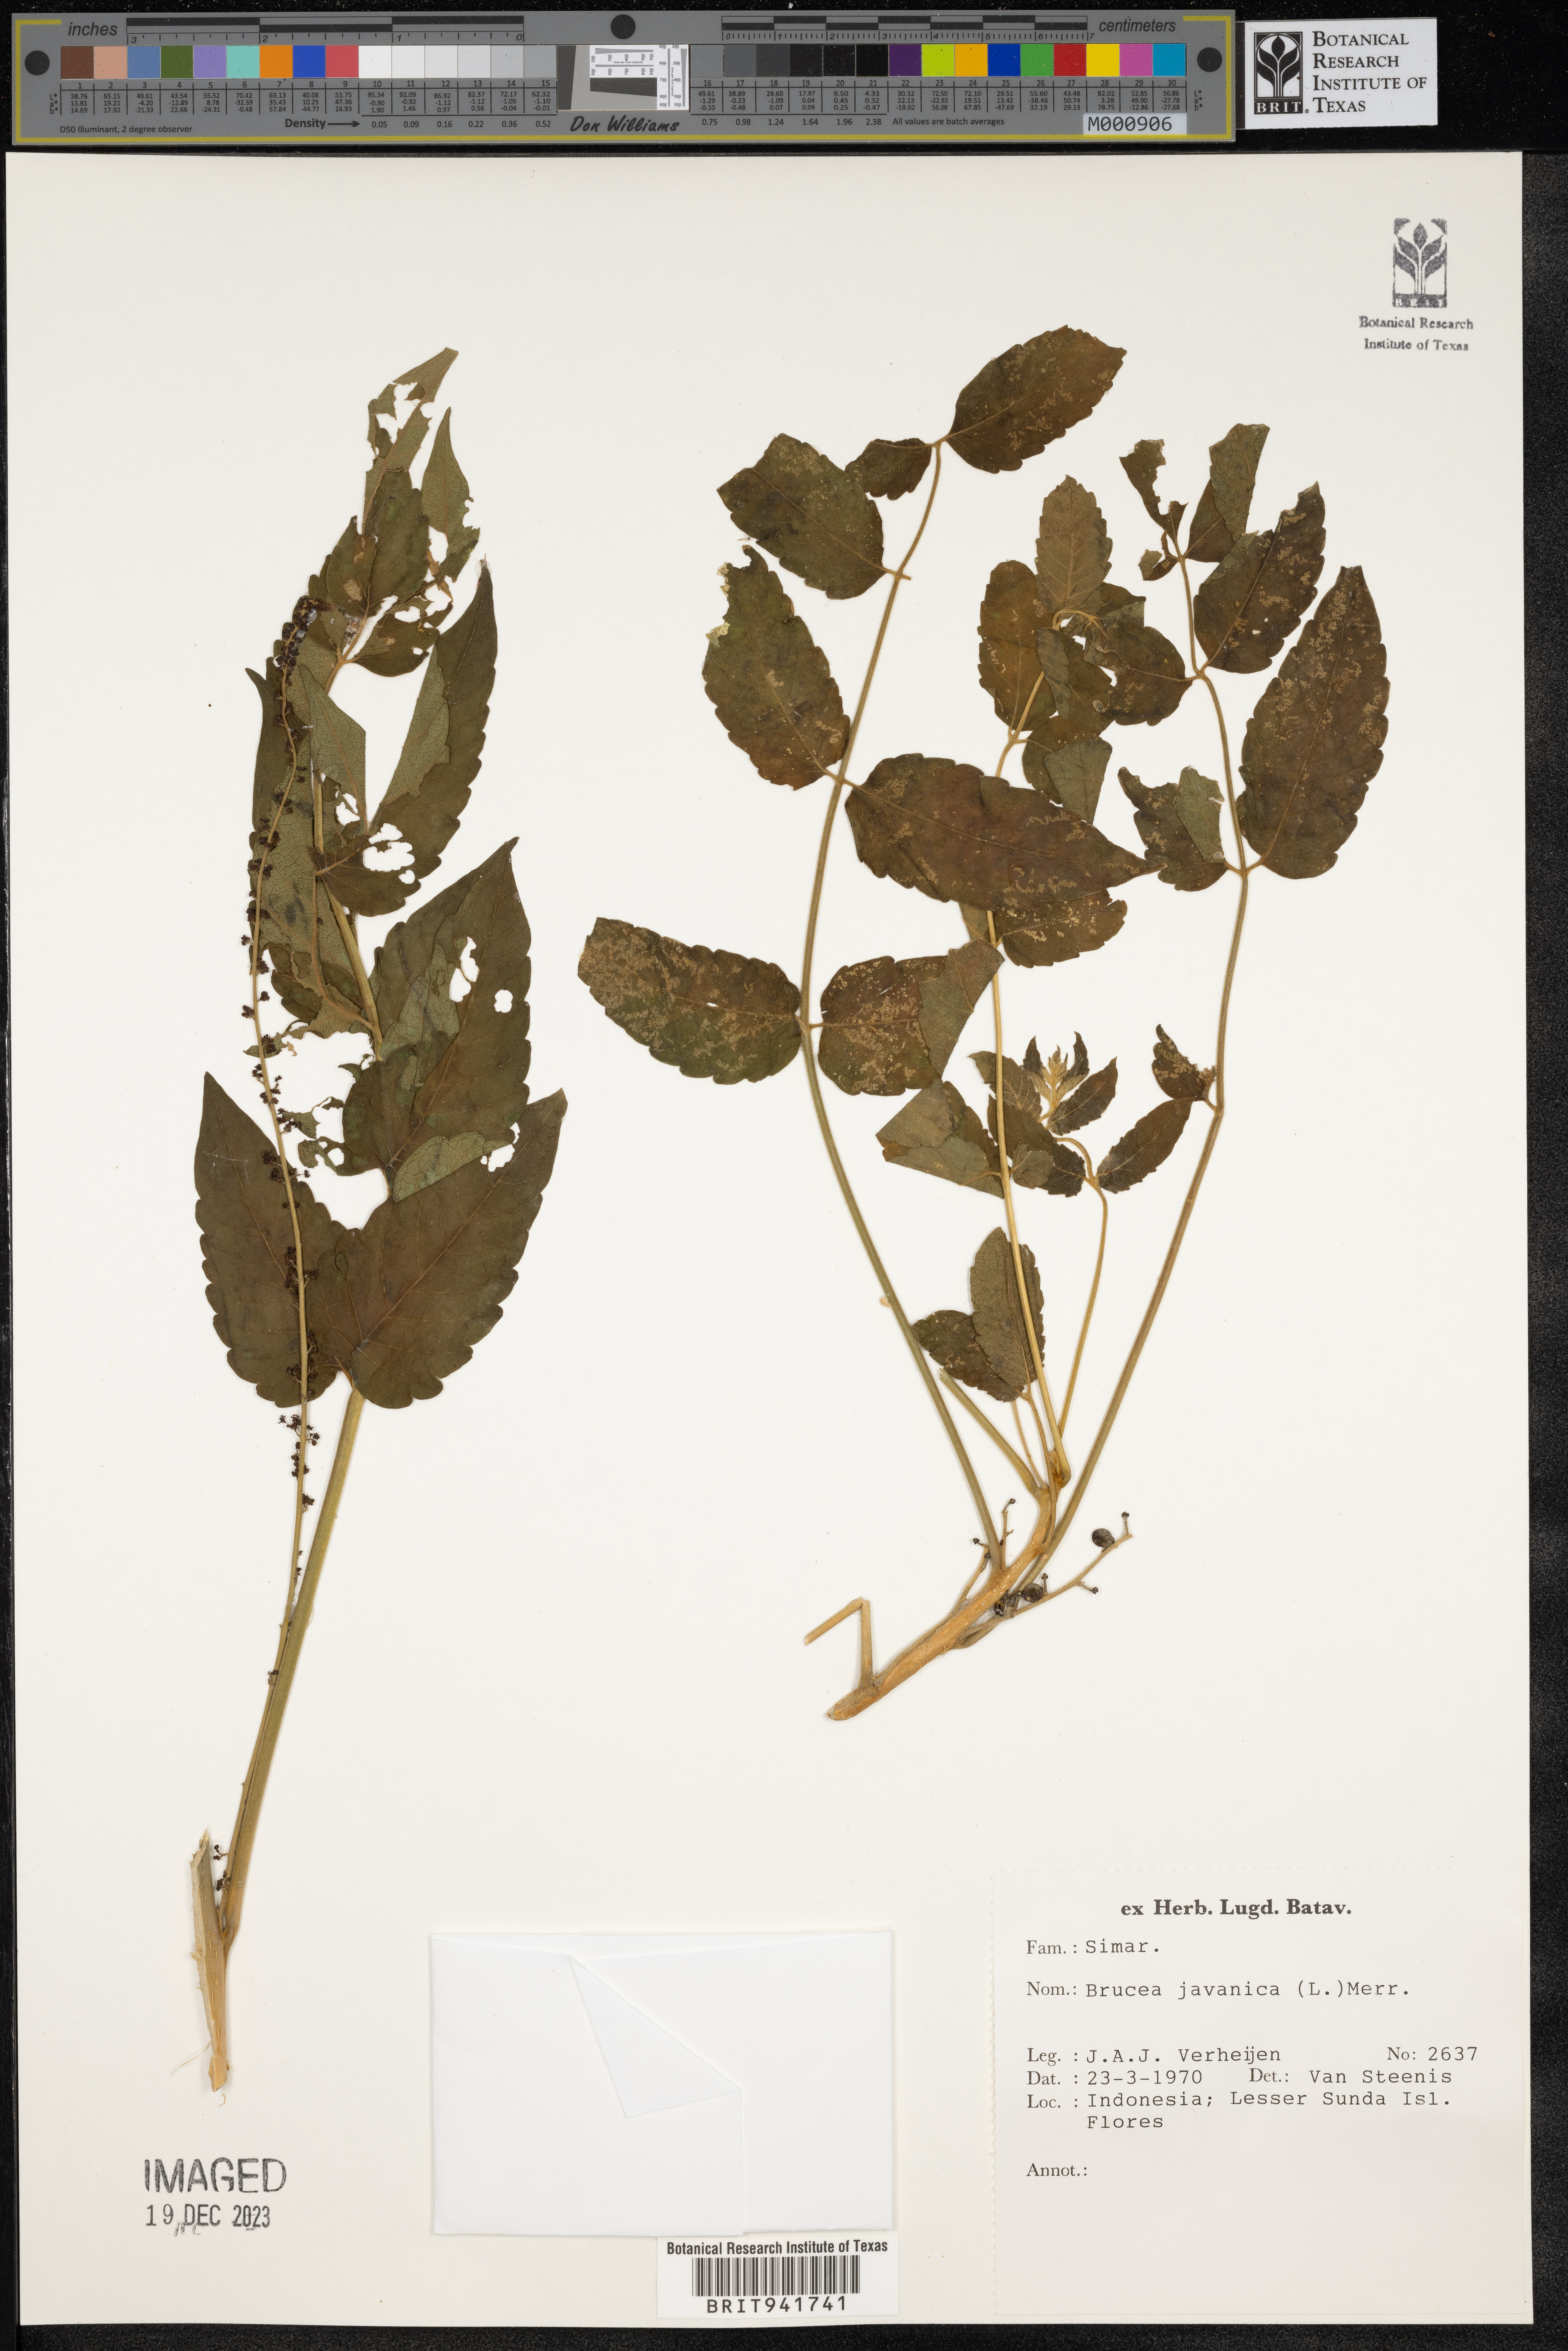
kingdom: Plantae
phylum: Tracheophyta
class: Magnoliopsida
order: Sapindales
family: Simaroubaceae
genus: Brucea
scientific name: Brucea
